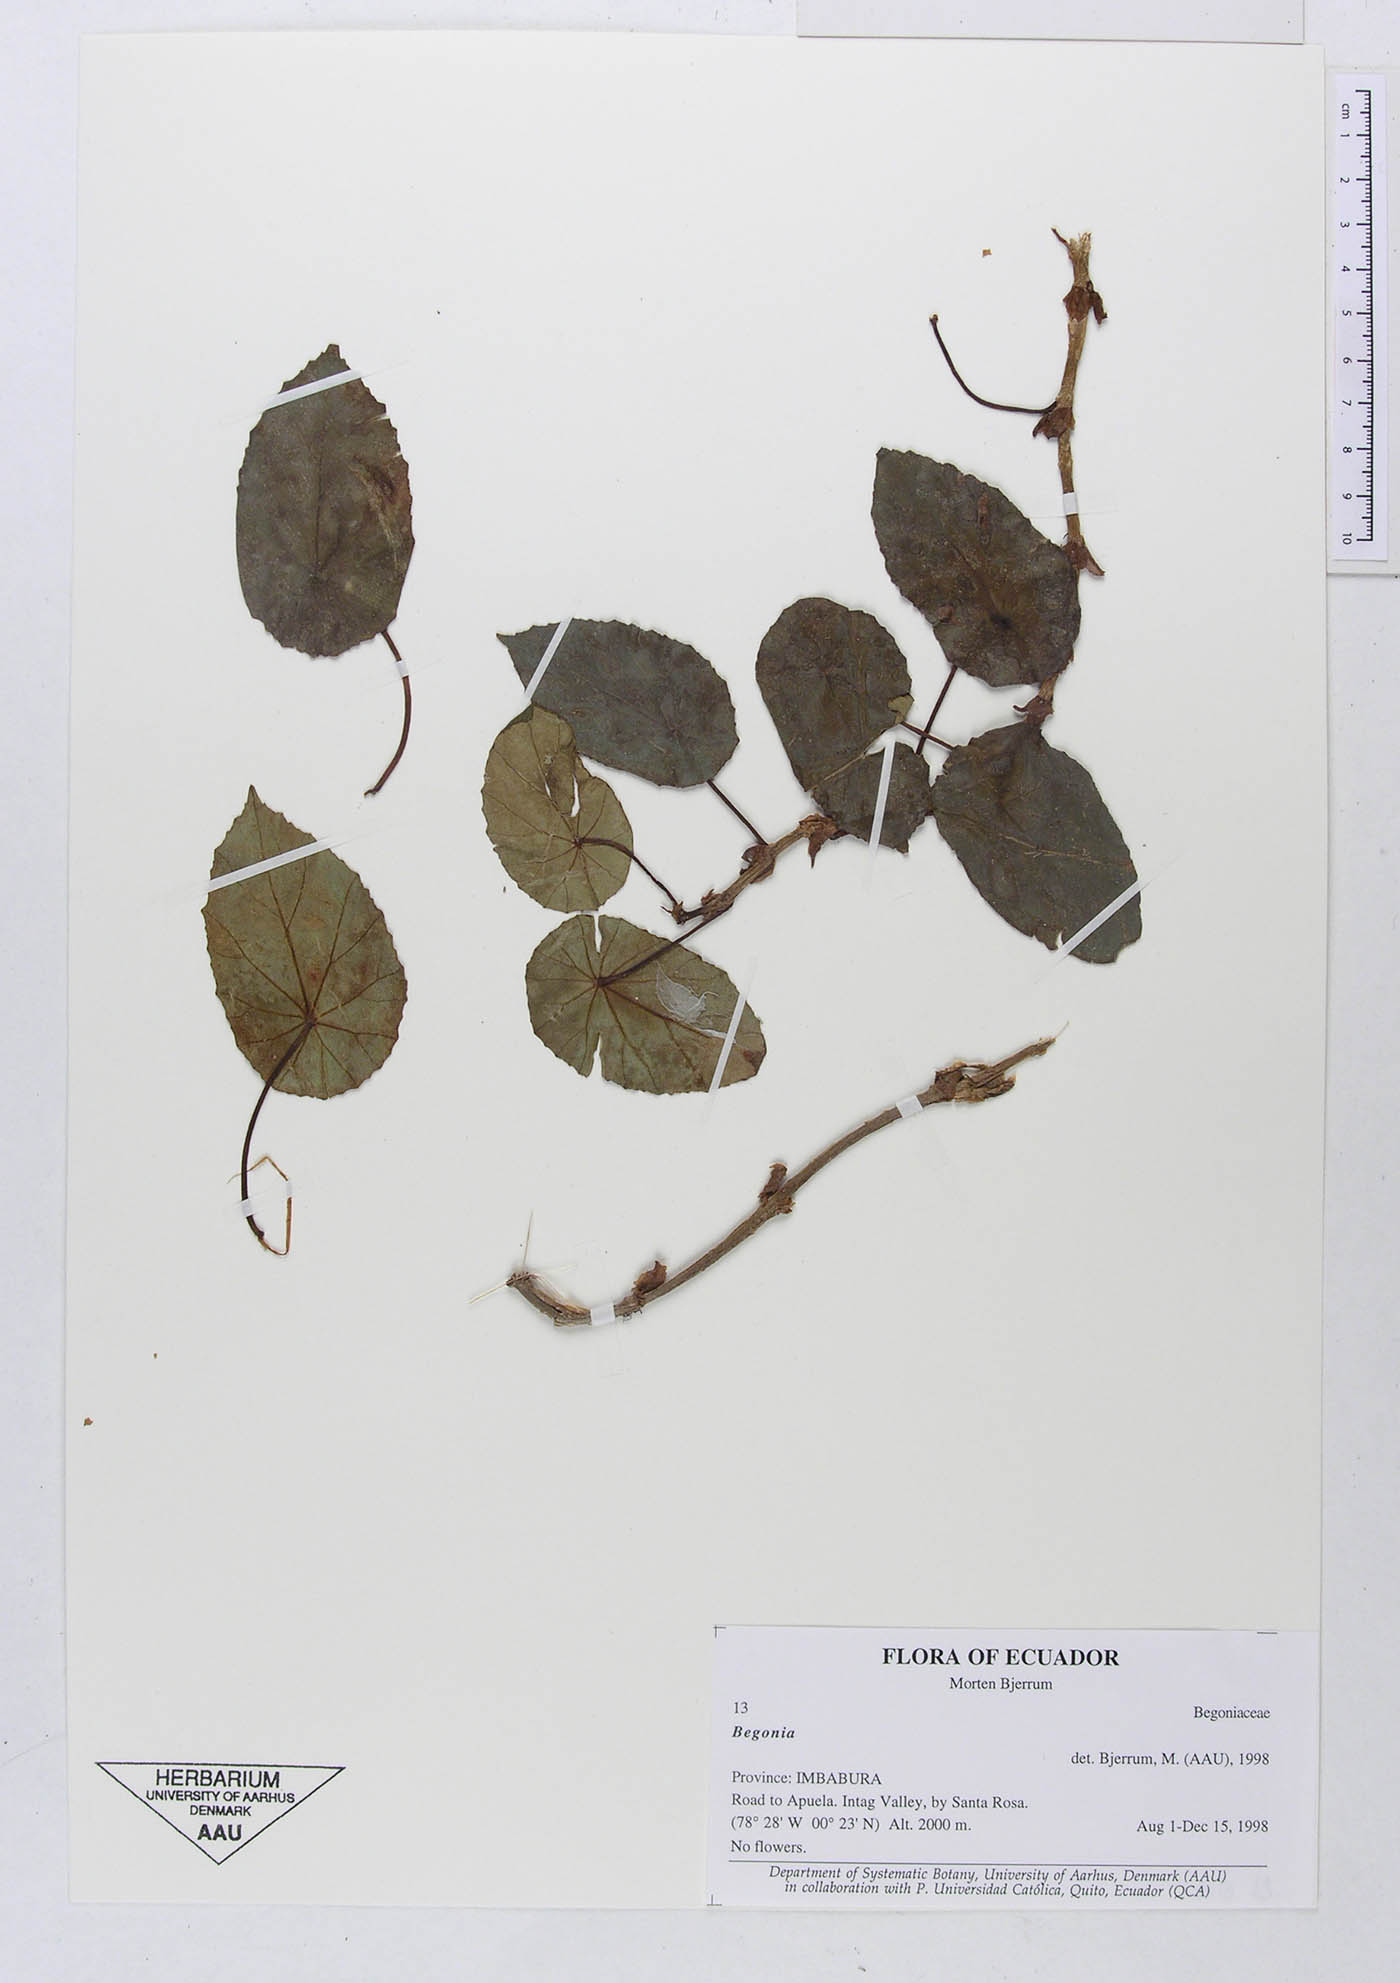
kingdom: Plantae
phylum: Tracheophyta
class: Magnoliopsida
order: Cucurbitales
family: Begoniaceae
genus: Begonia
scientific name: Begonia
